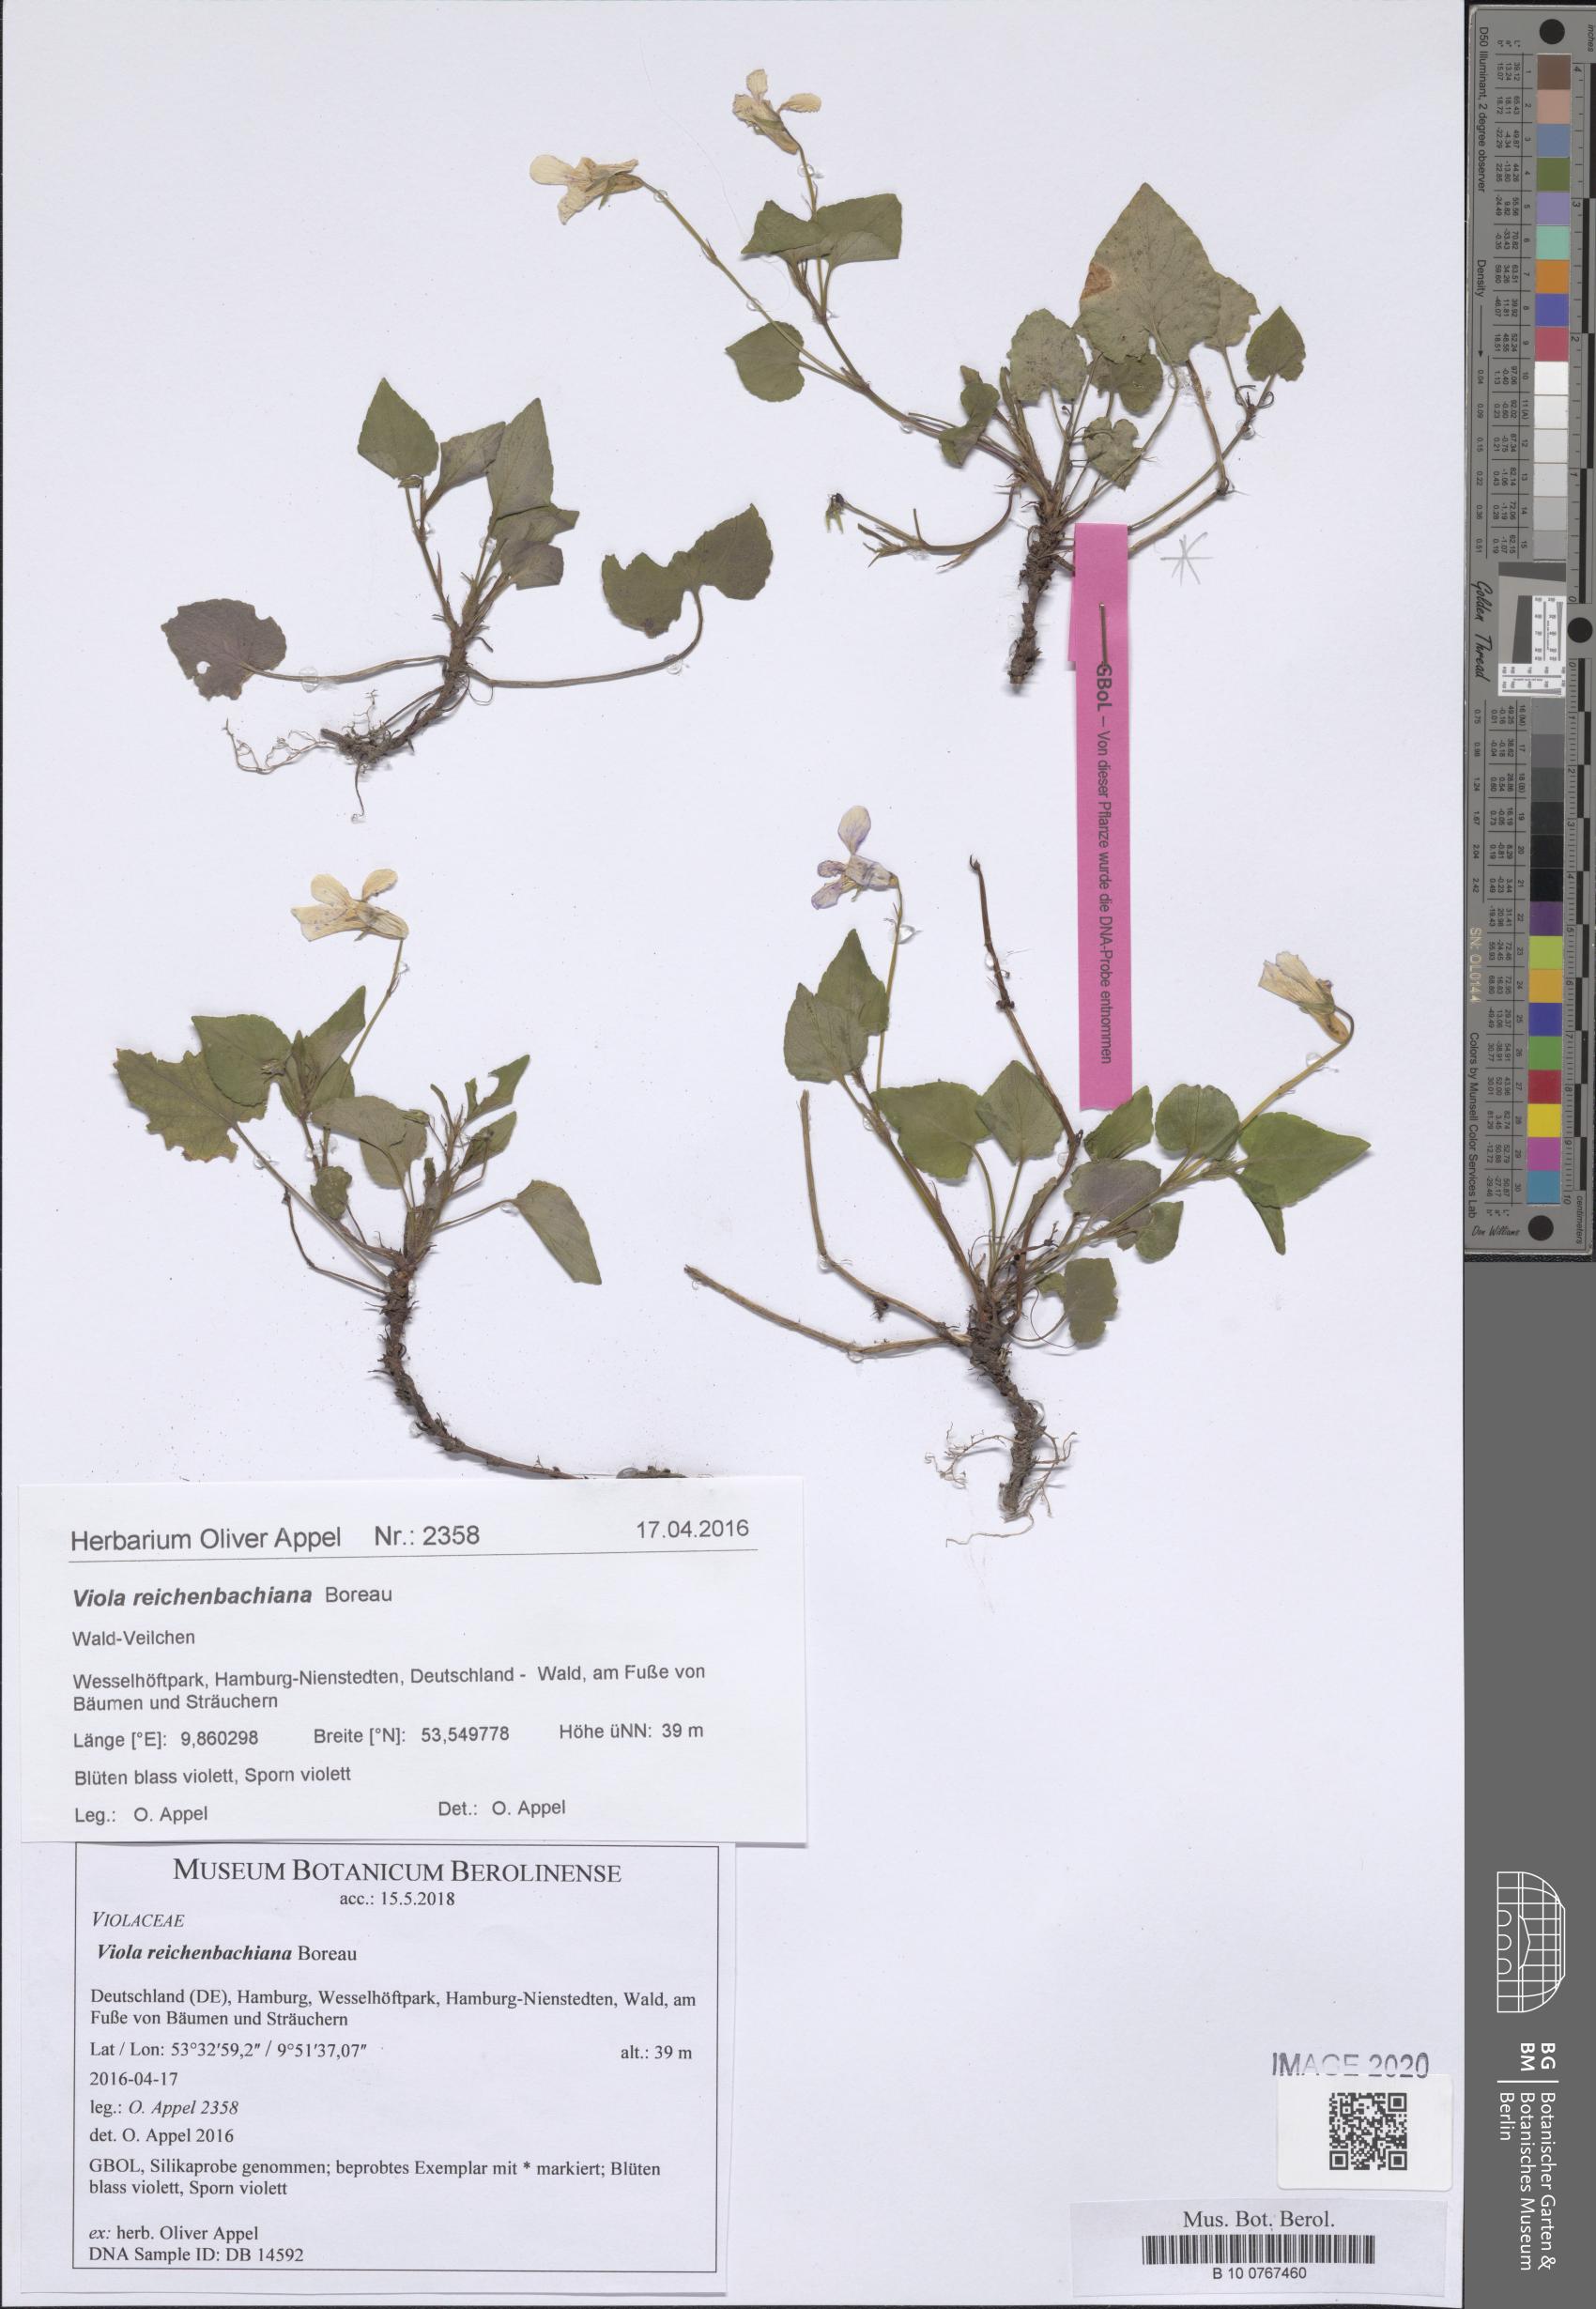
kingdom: Plantae
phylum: Tracheophyta
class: Magnoliopsida
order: Malpighiales
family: Violaceae
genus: Viola
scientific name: Viola reichenbachiana
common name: Early dog-violet
